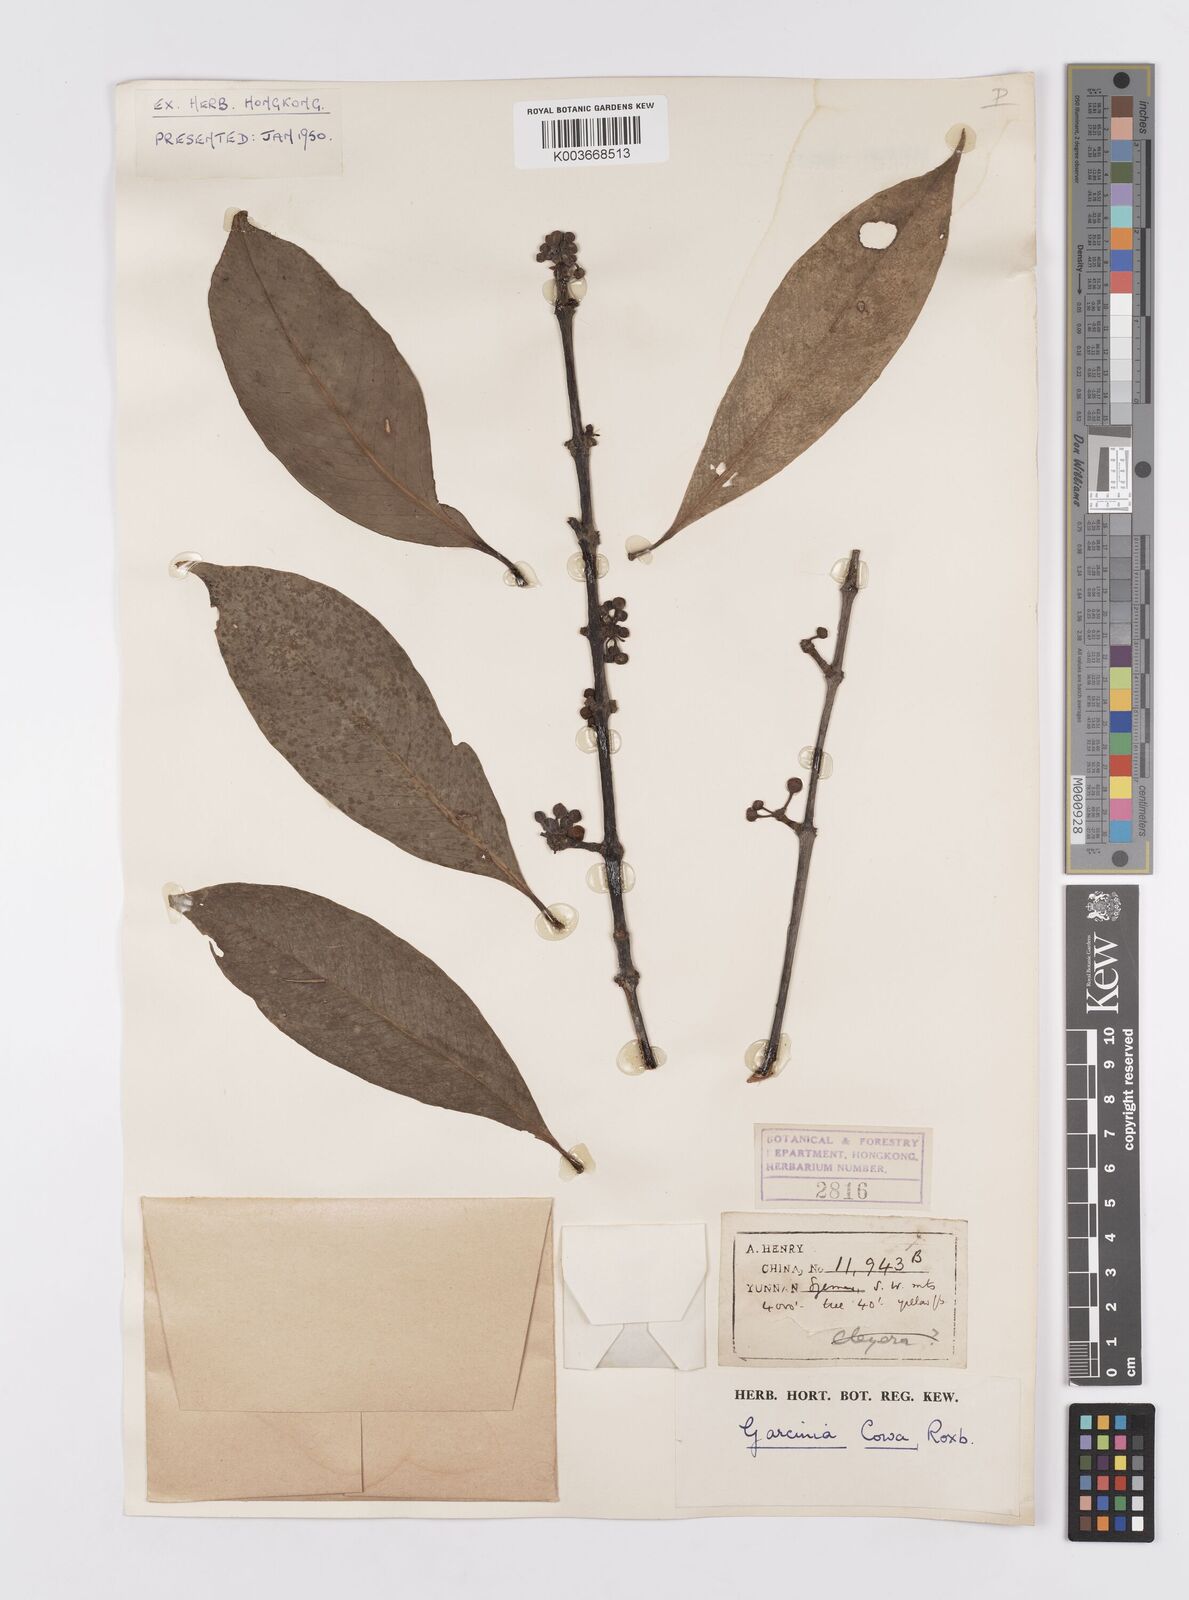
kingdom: Plantae
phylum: Tracheophyta
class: Magnoliopsida
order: Malpighiales
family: Clusiaceae
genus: Garcinia
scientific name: Garcinia cowa
